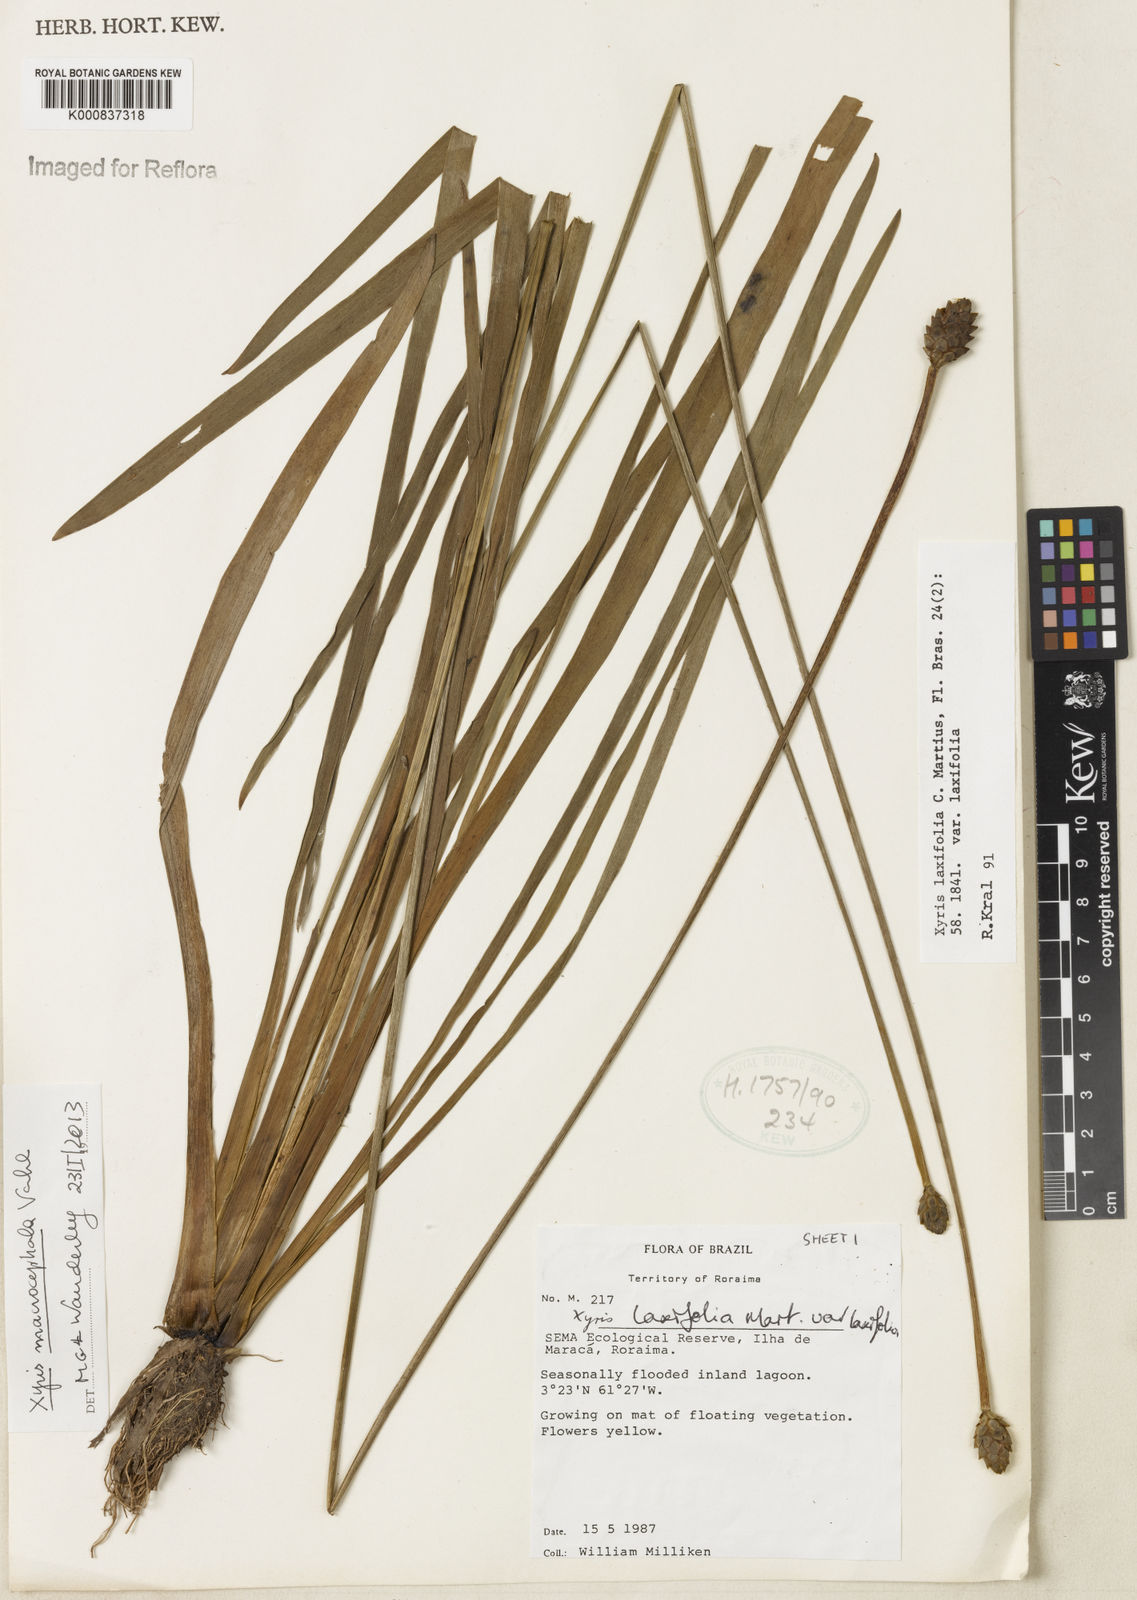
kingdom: Plantae
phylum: Tracheophyta
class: Liliopsida
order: Poales
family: Xyridaceae
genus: Xyris
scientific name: Xyris jupicai
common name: Richard's yelloweyed grass
